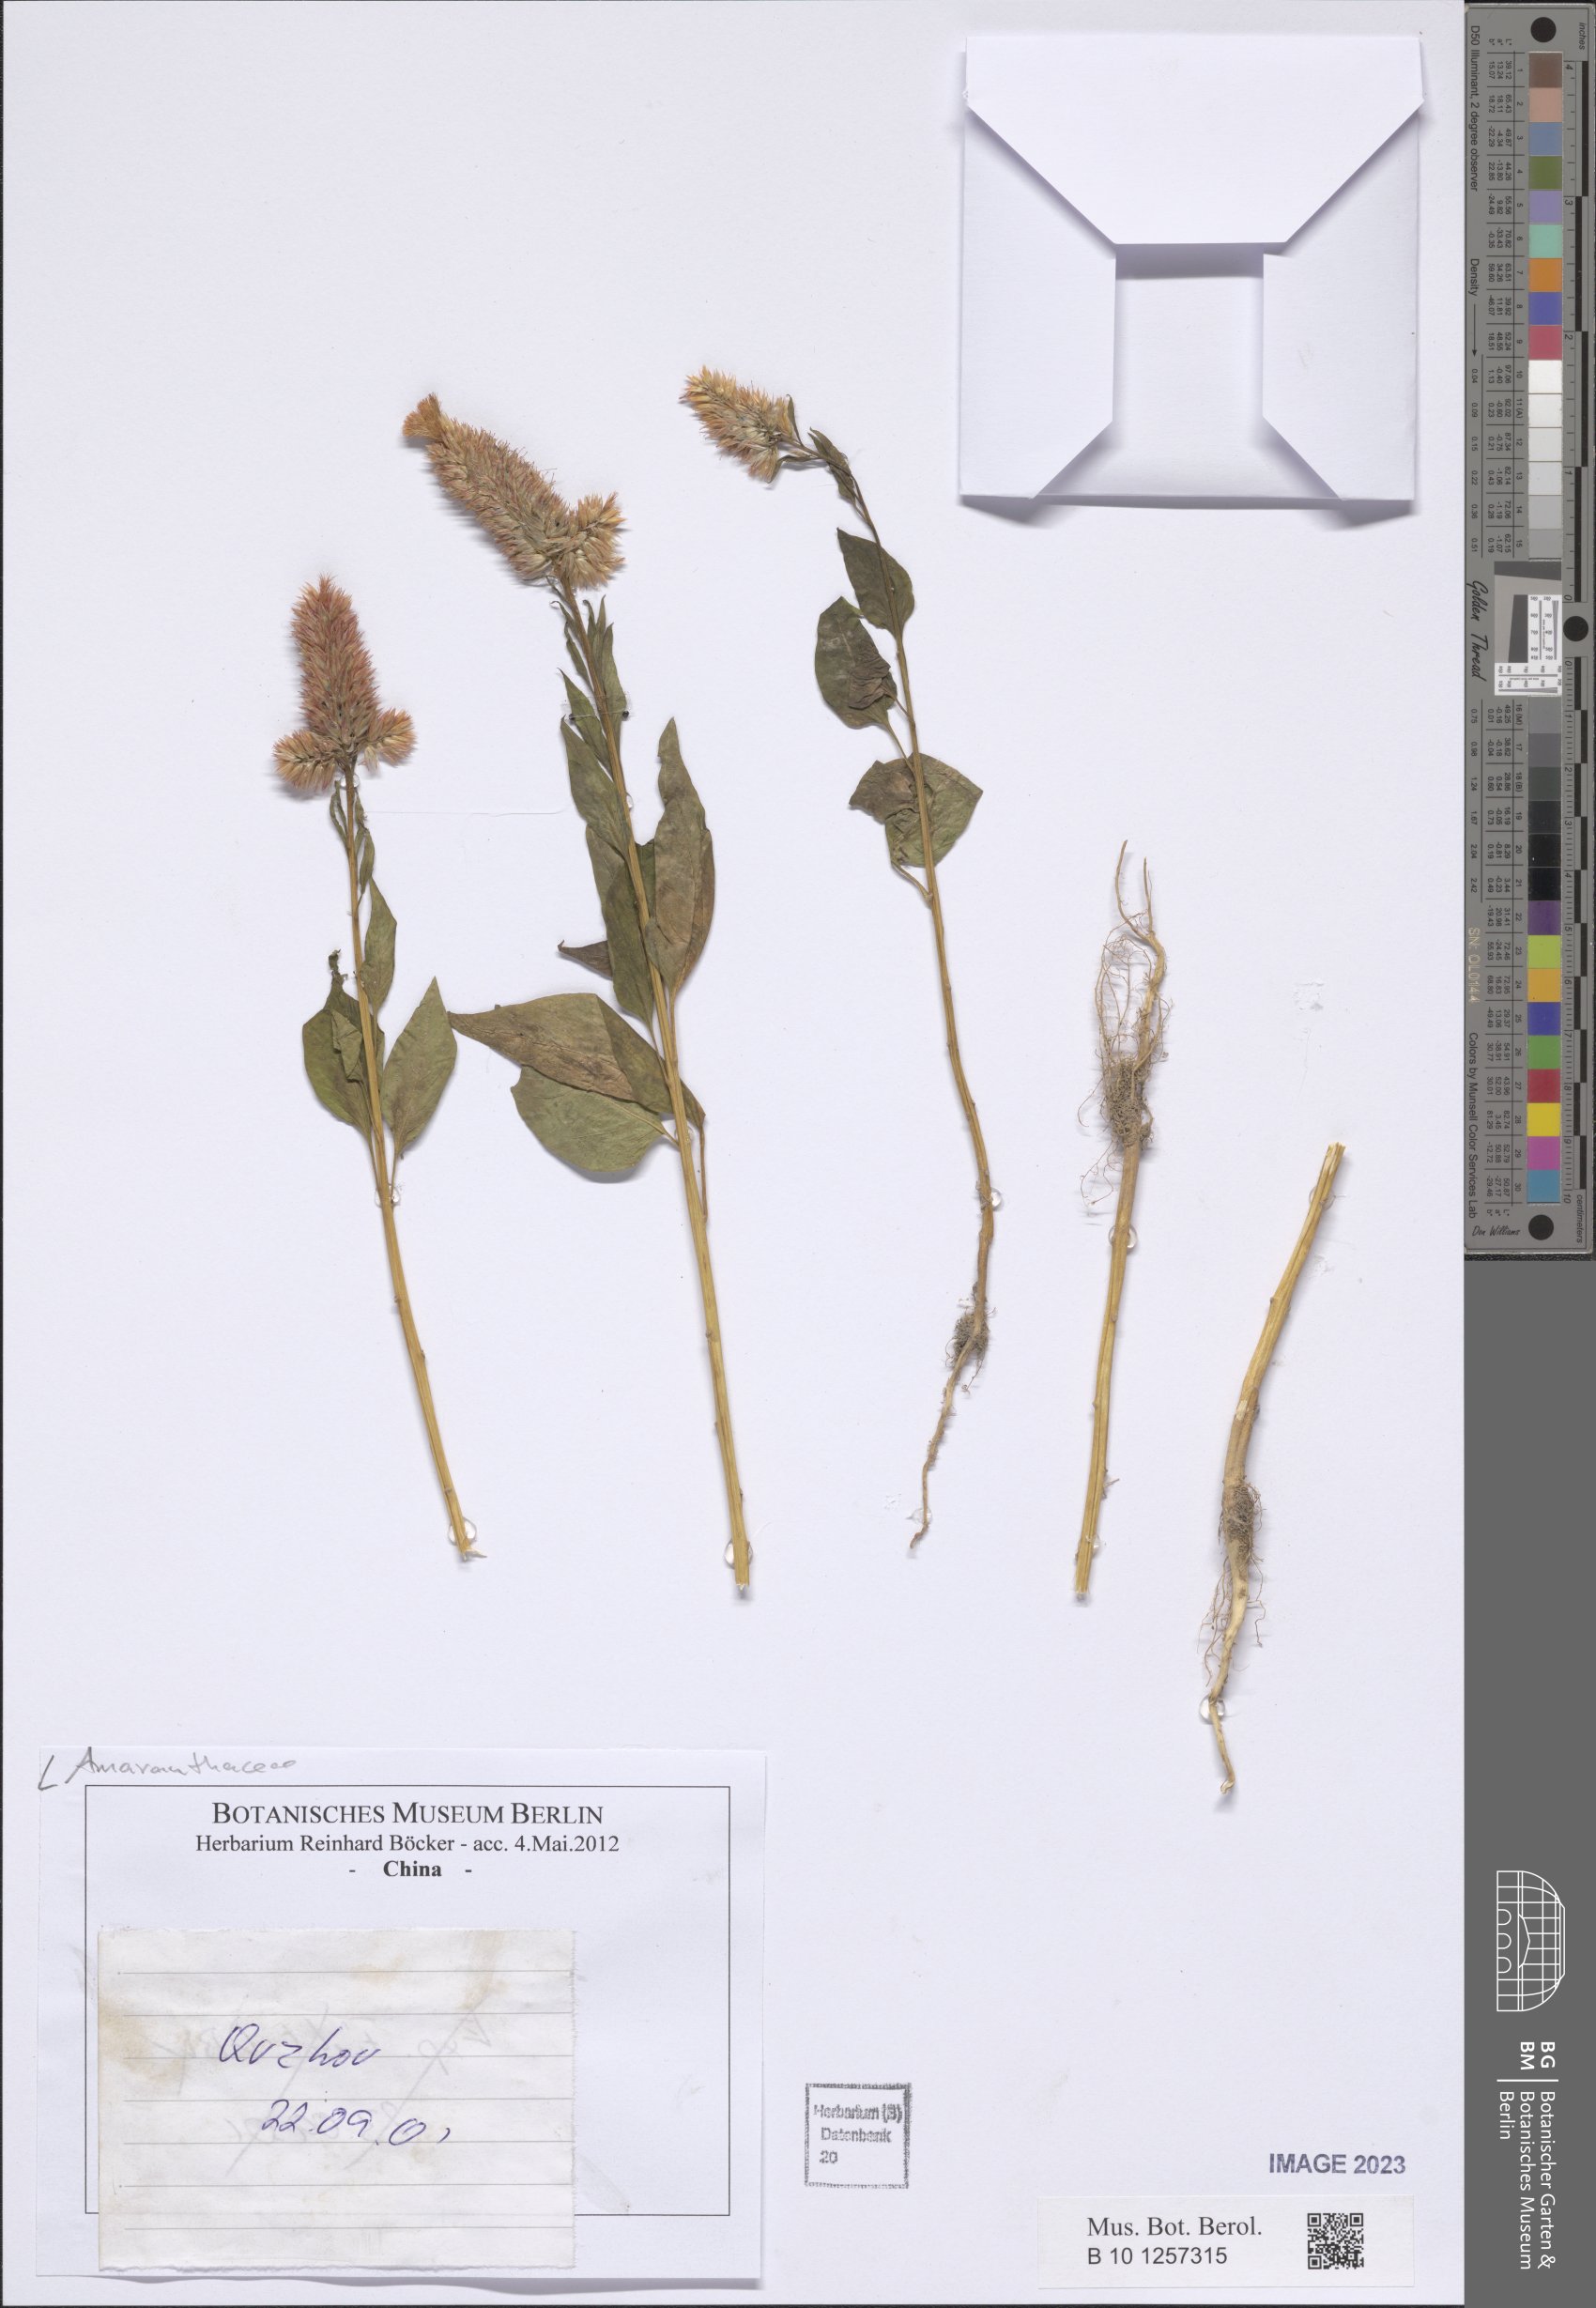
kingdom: Plantae
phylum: Tracheophyta
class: Magnoliopsida
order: Caryophyllales
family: Amaranthaceae
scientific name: Amaranthaceae
